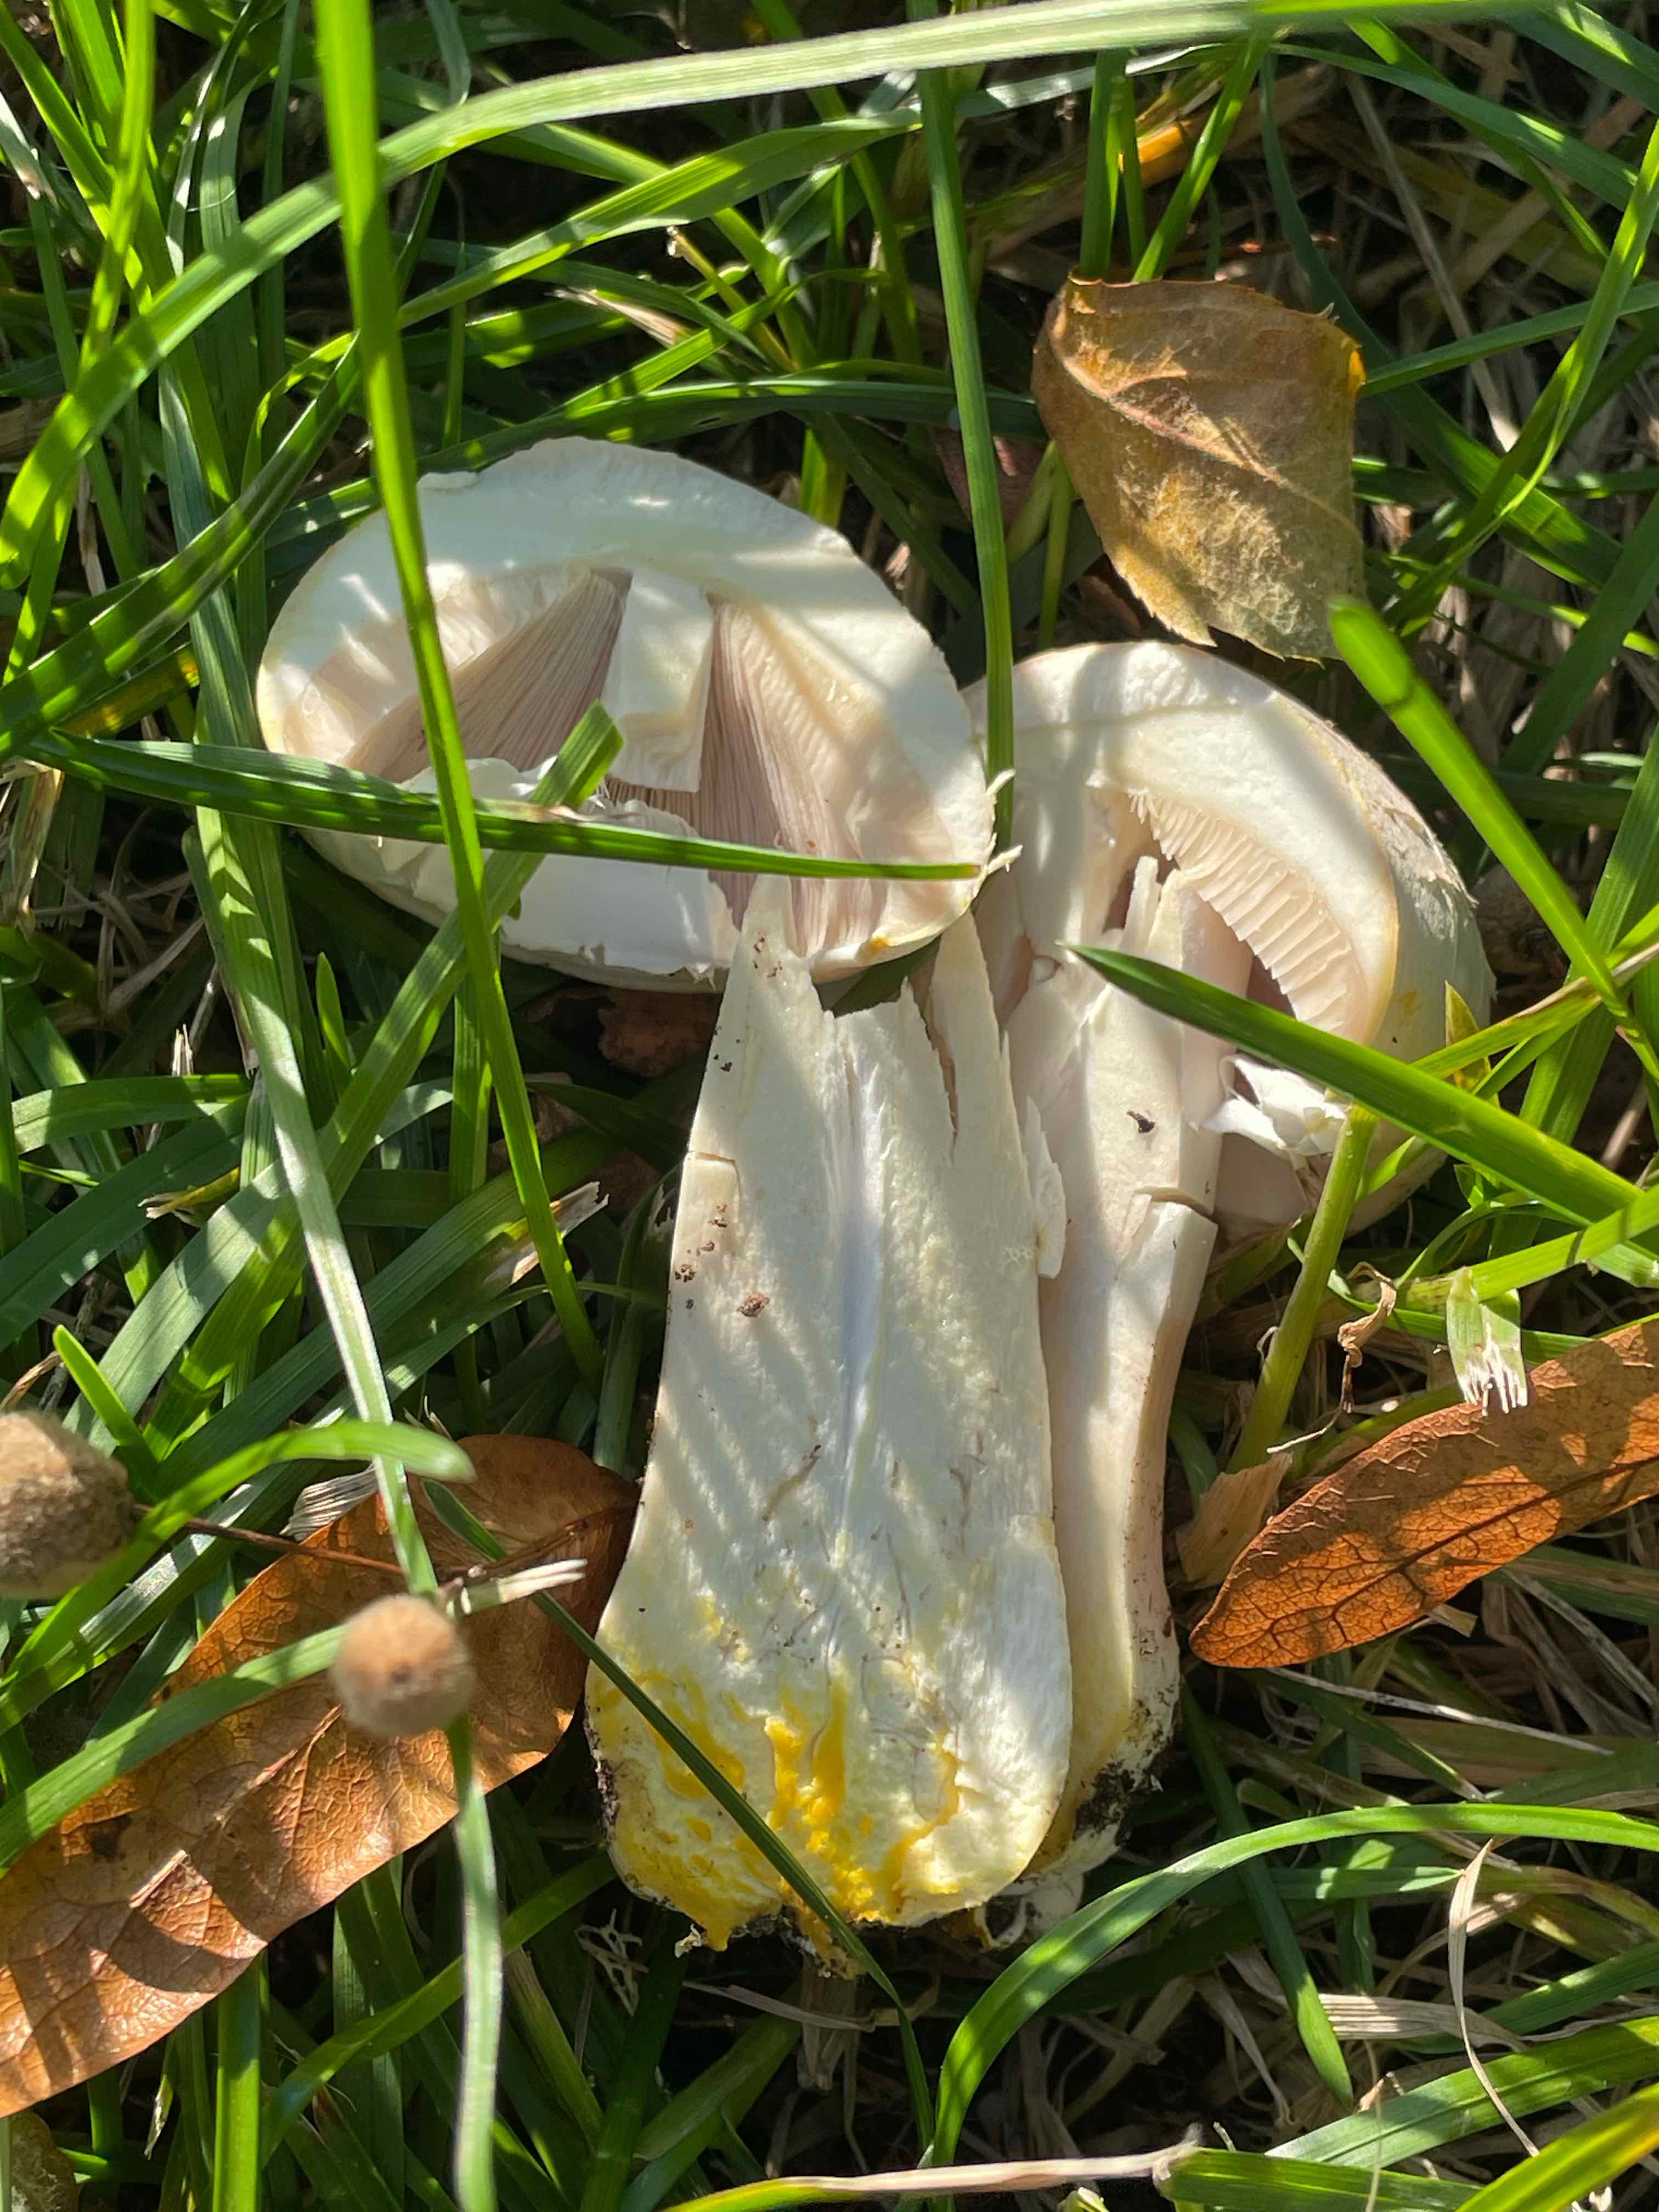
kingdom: Fungi
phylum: Basidiomycota
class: Agaricomycetes
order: Agaricales
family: Agaricaceae
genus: Agaricus
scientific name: Agaricus xanthodermus
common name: karbol-champignon
